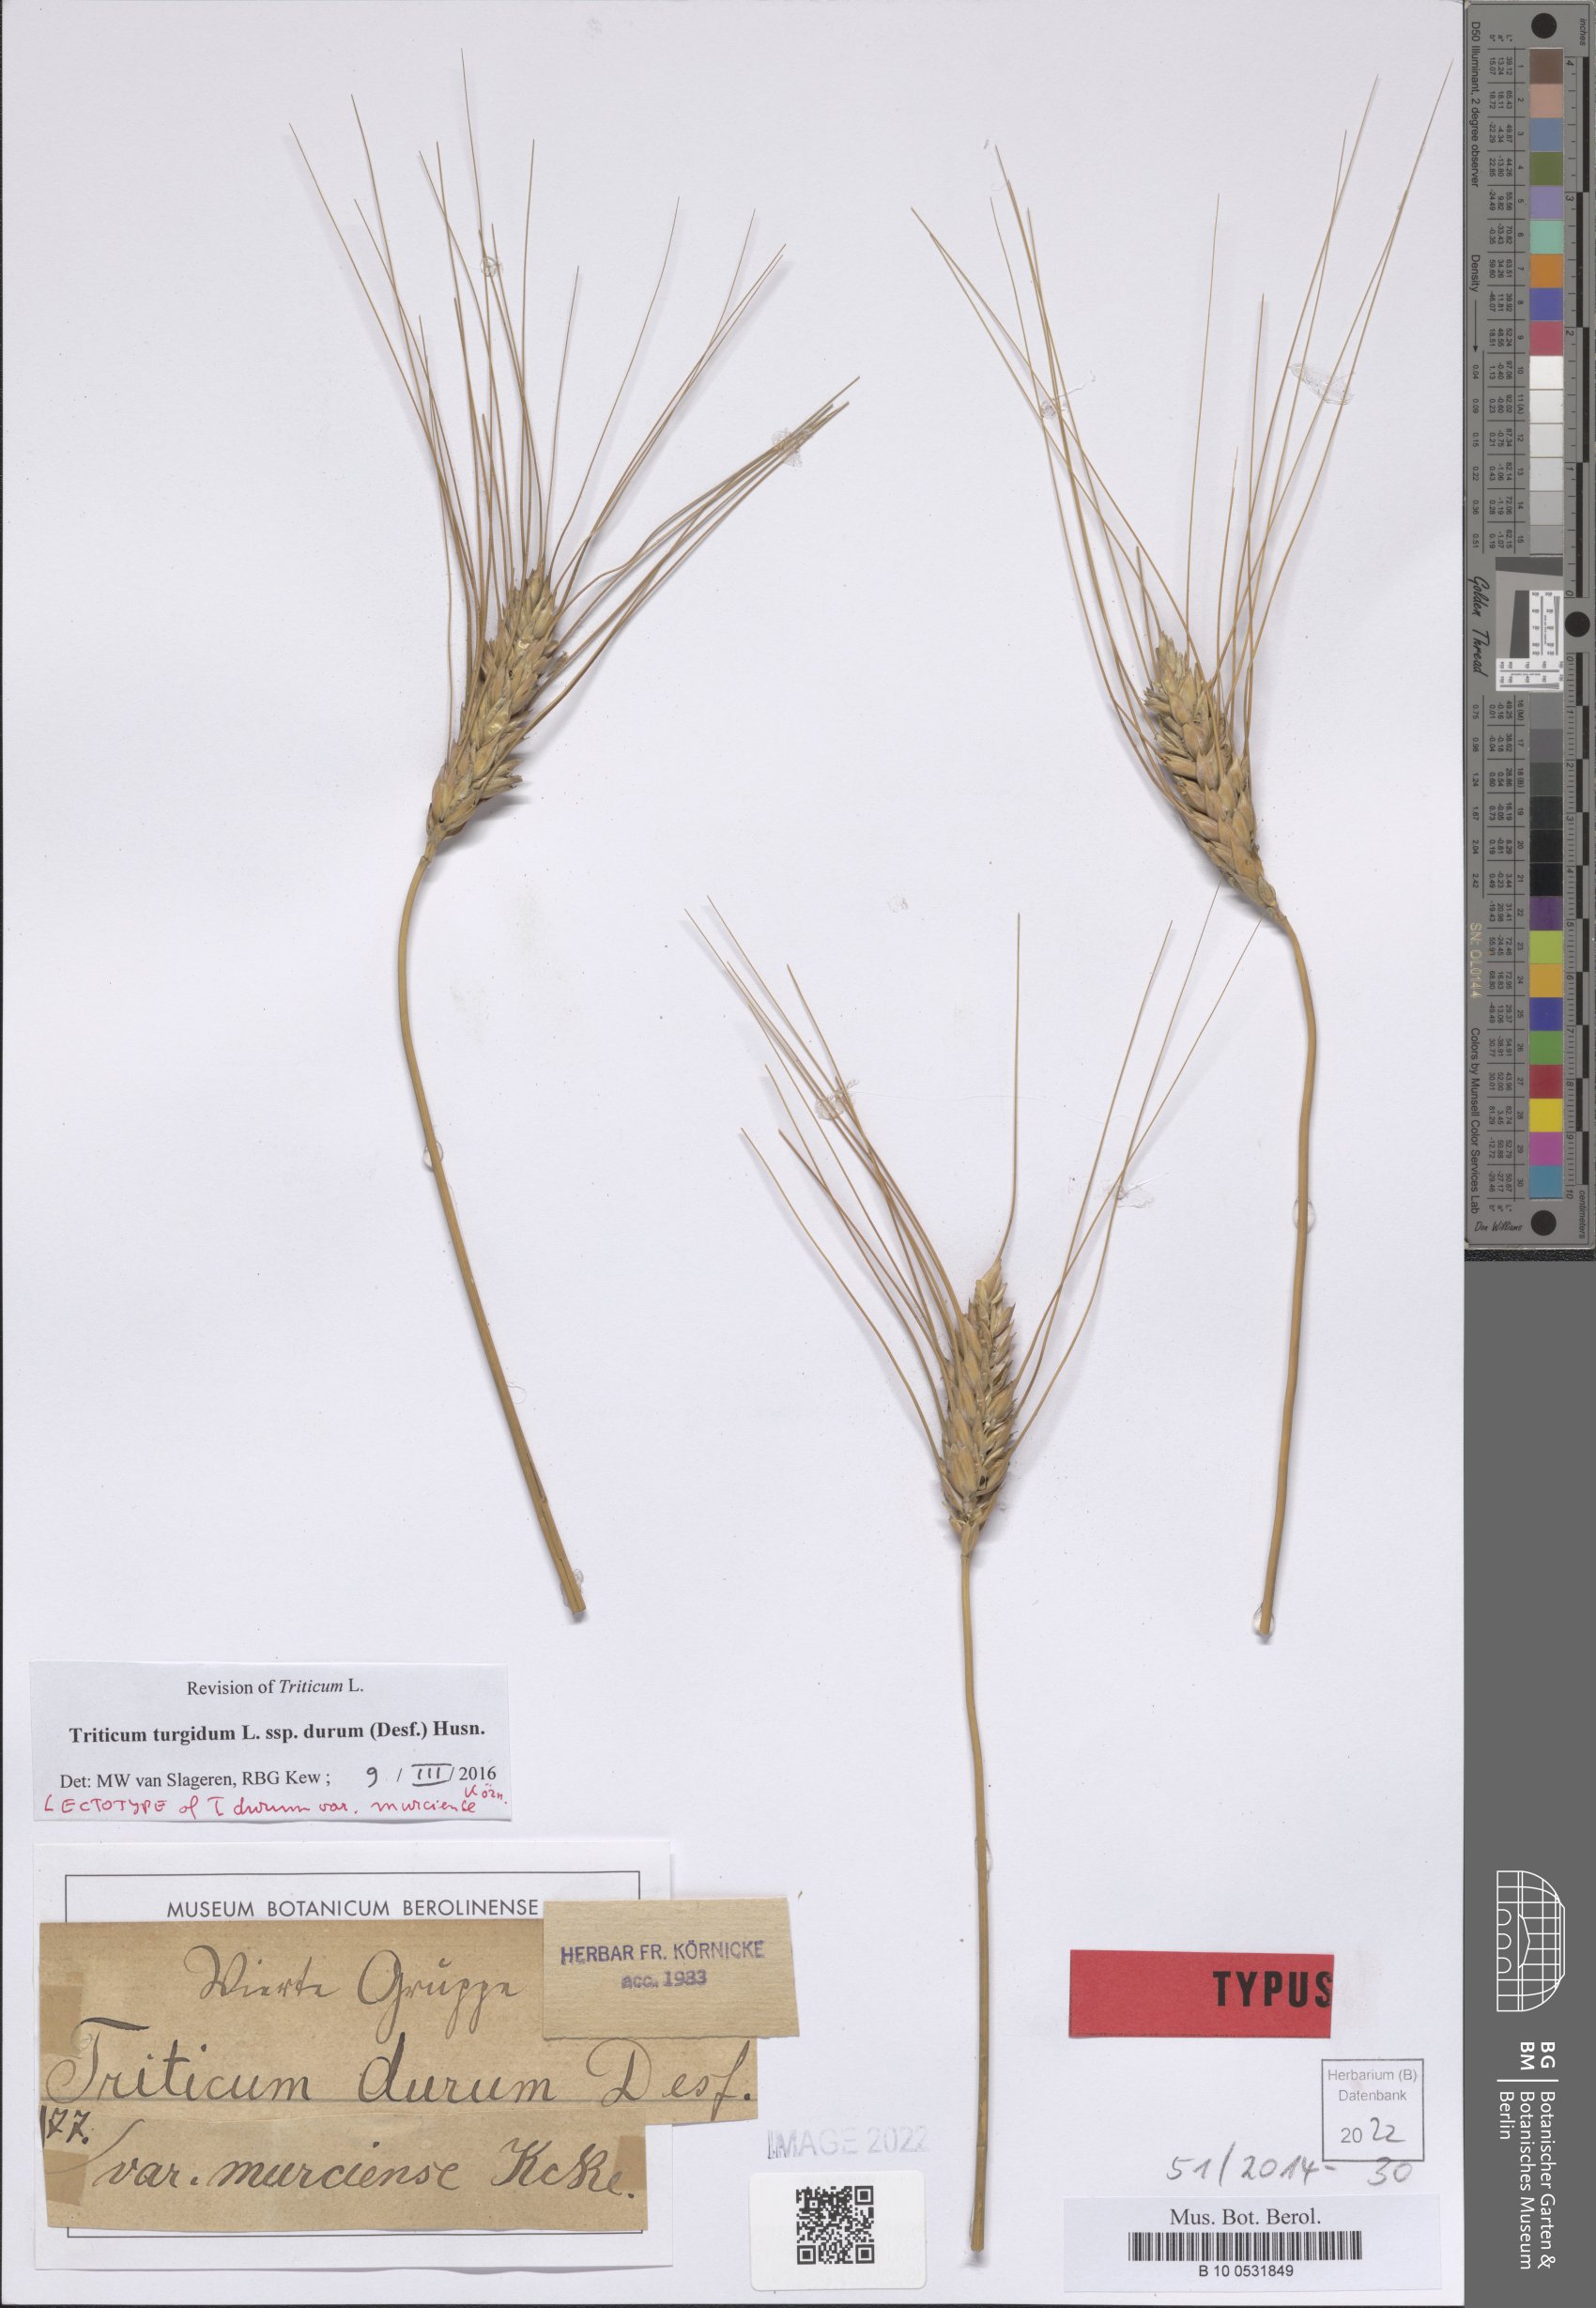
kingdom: Plantae
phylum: Tracheophyta
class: Liliopsida
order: Poales
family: Poaceae
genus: Triticum
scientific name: Triticum turgidum
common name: Rivet wheat
